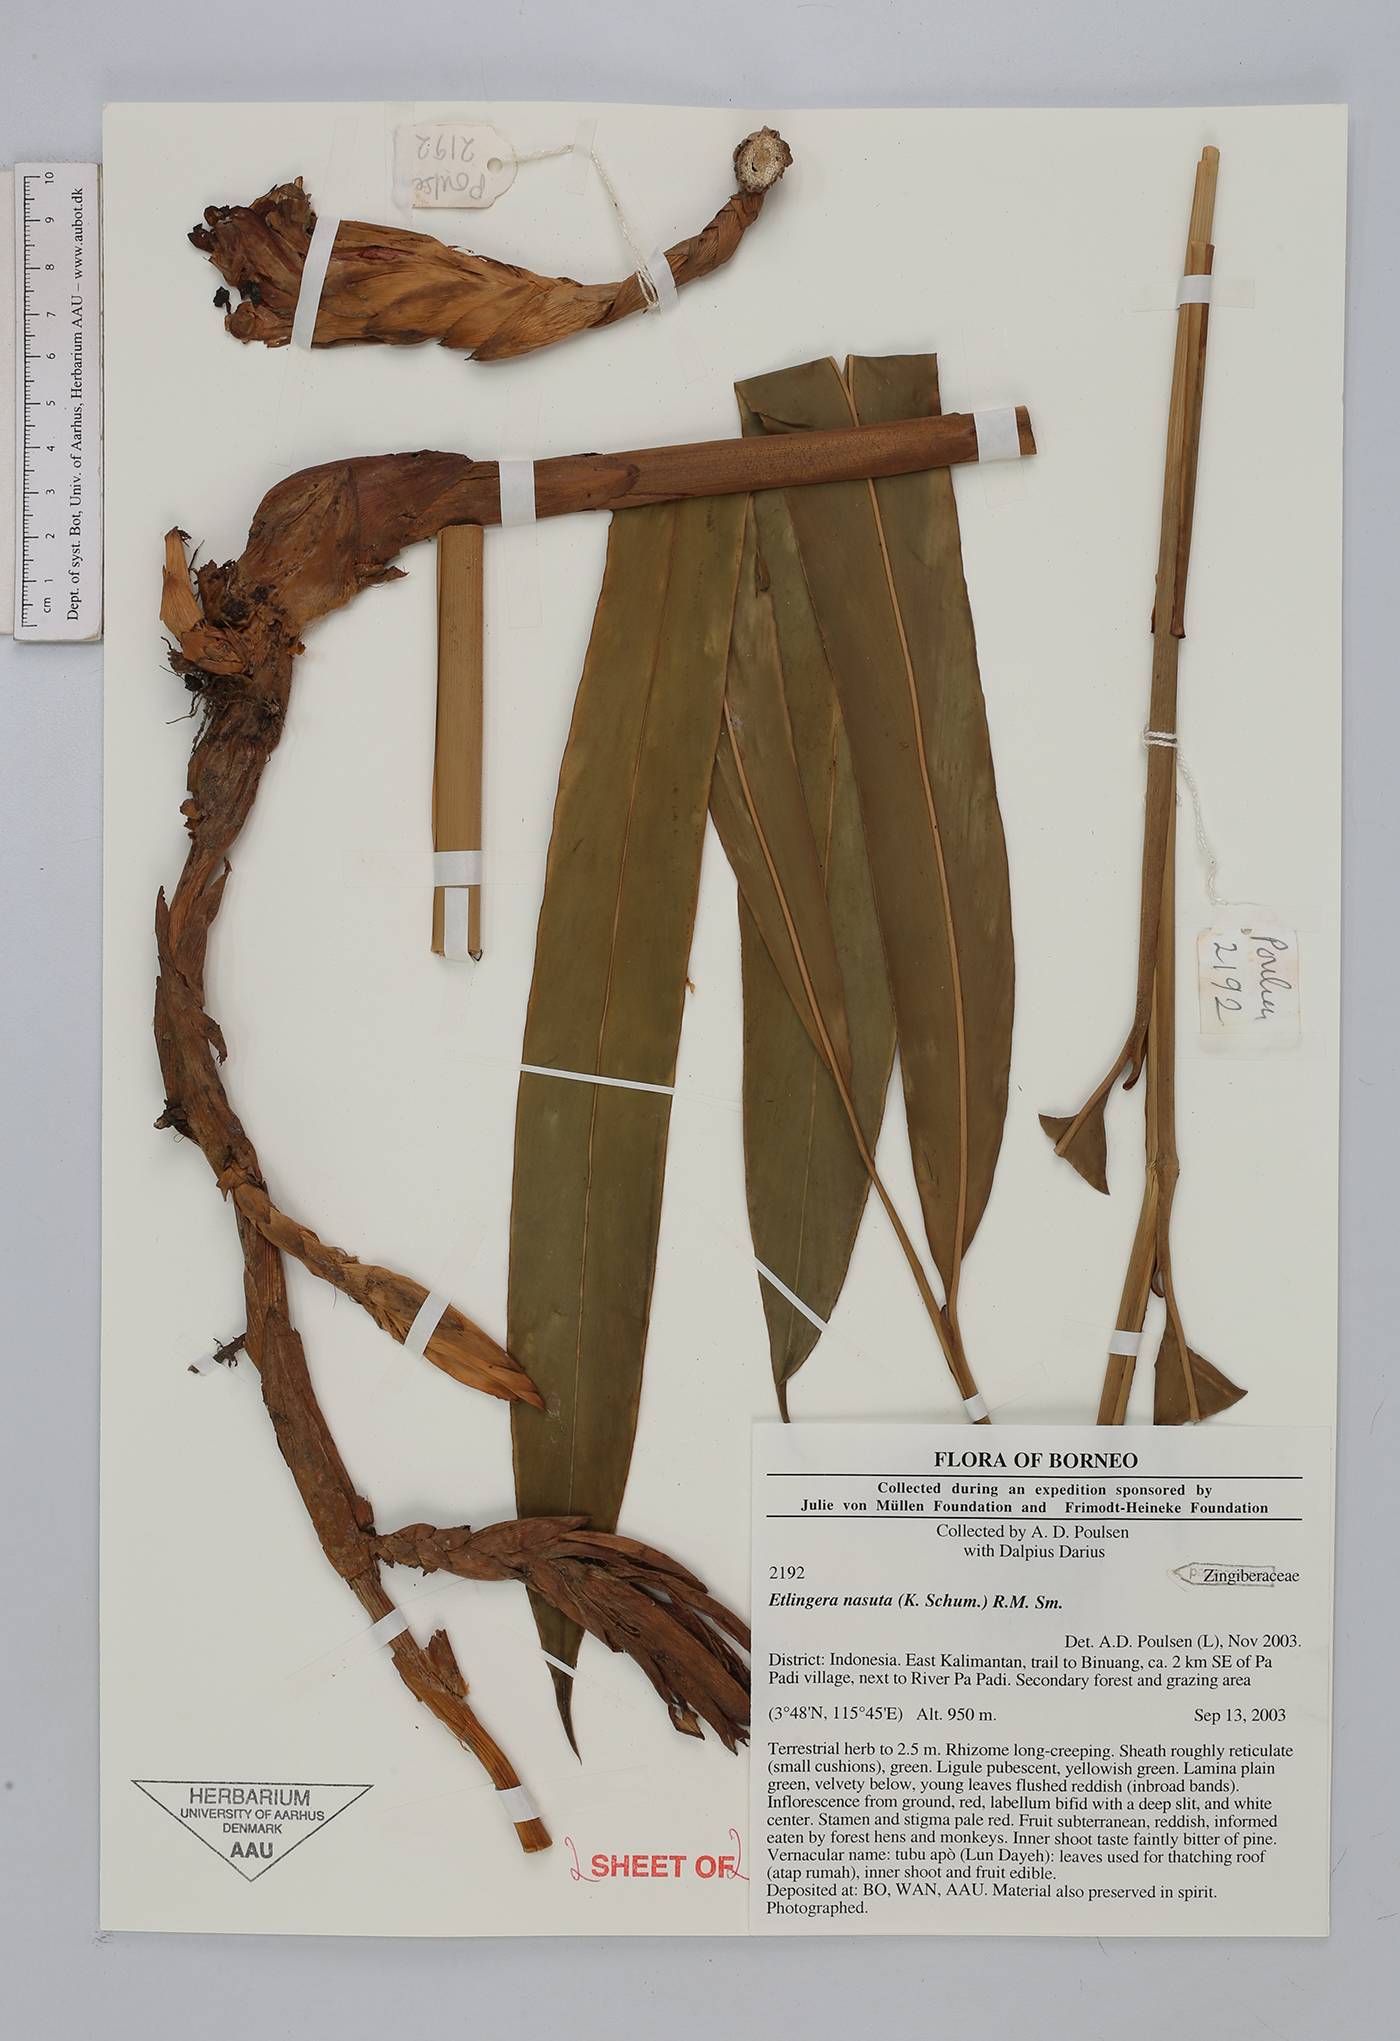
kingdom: Plantae
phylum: Tracheophyta
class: Liliopsida
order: Zingiberales
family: Zingiberaceae
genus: Etlingera
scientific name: Etlingera nasuta
